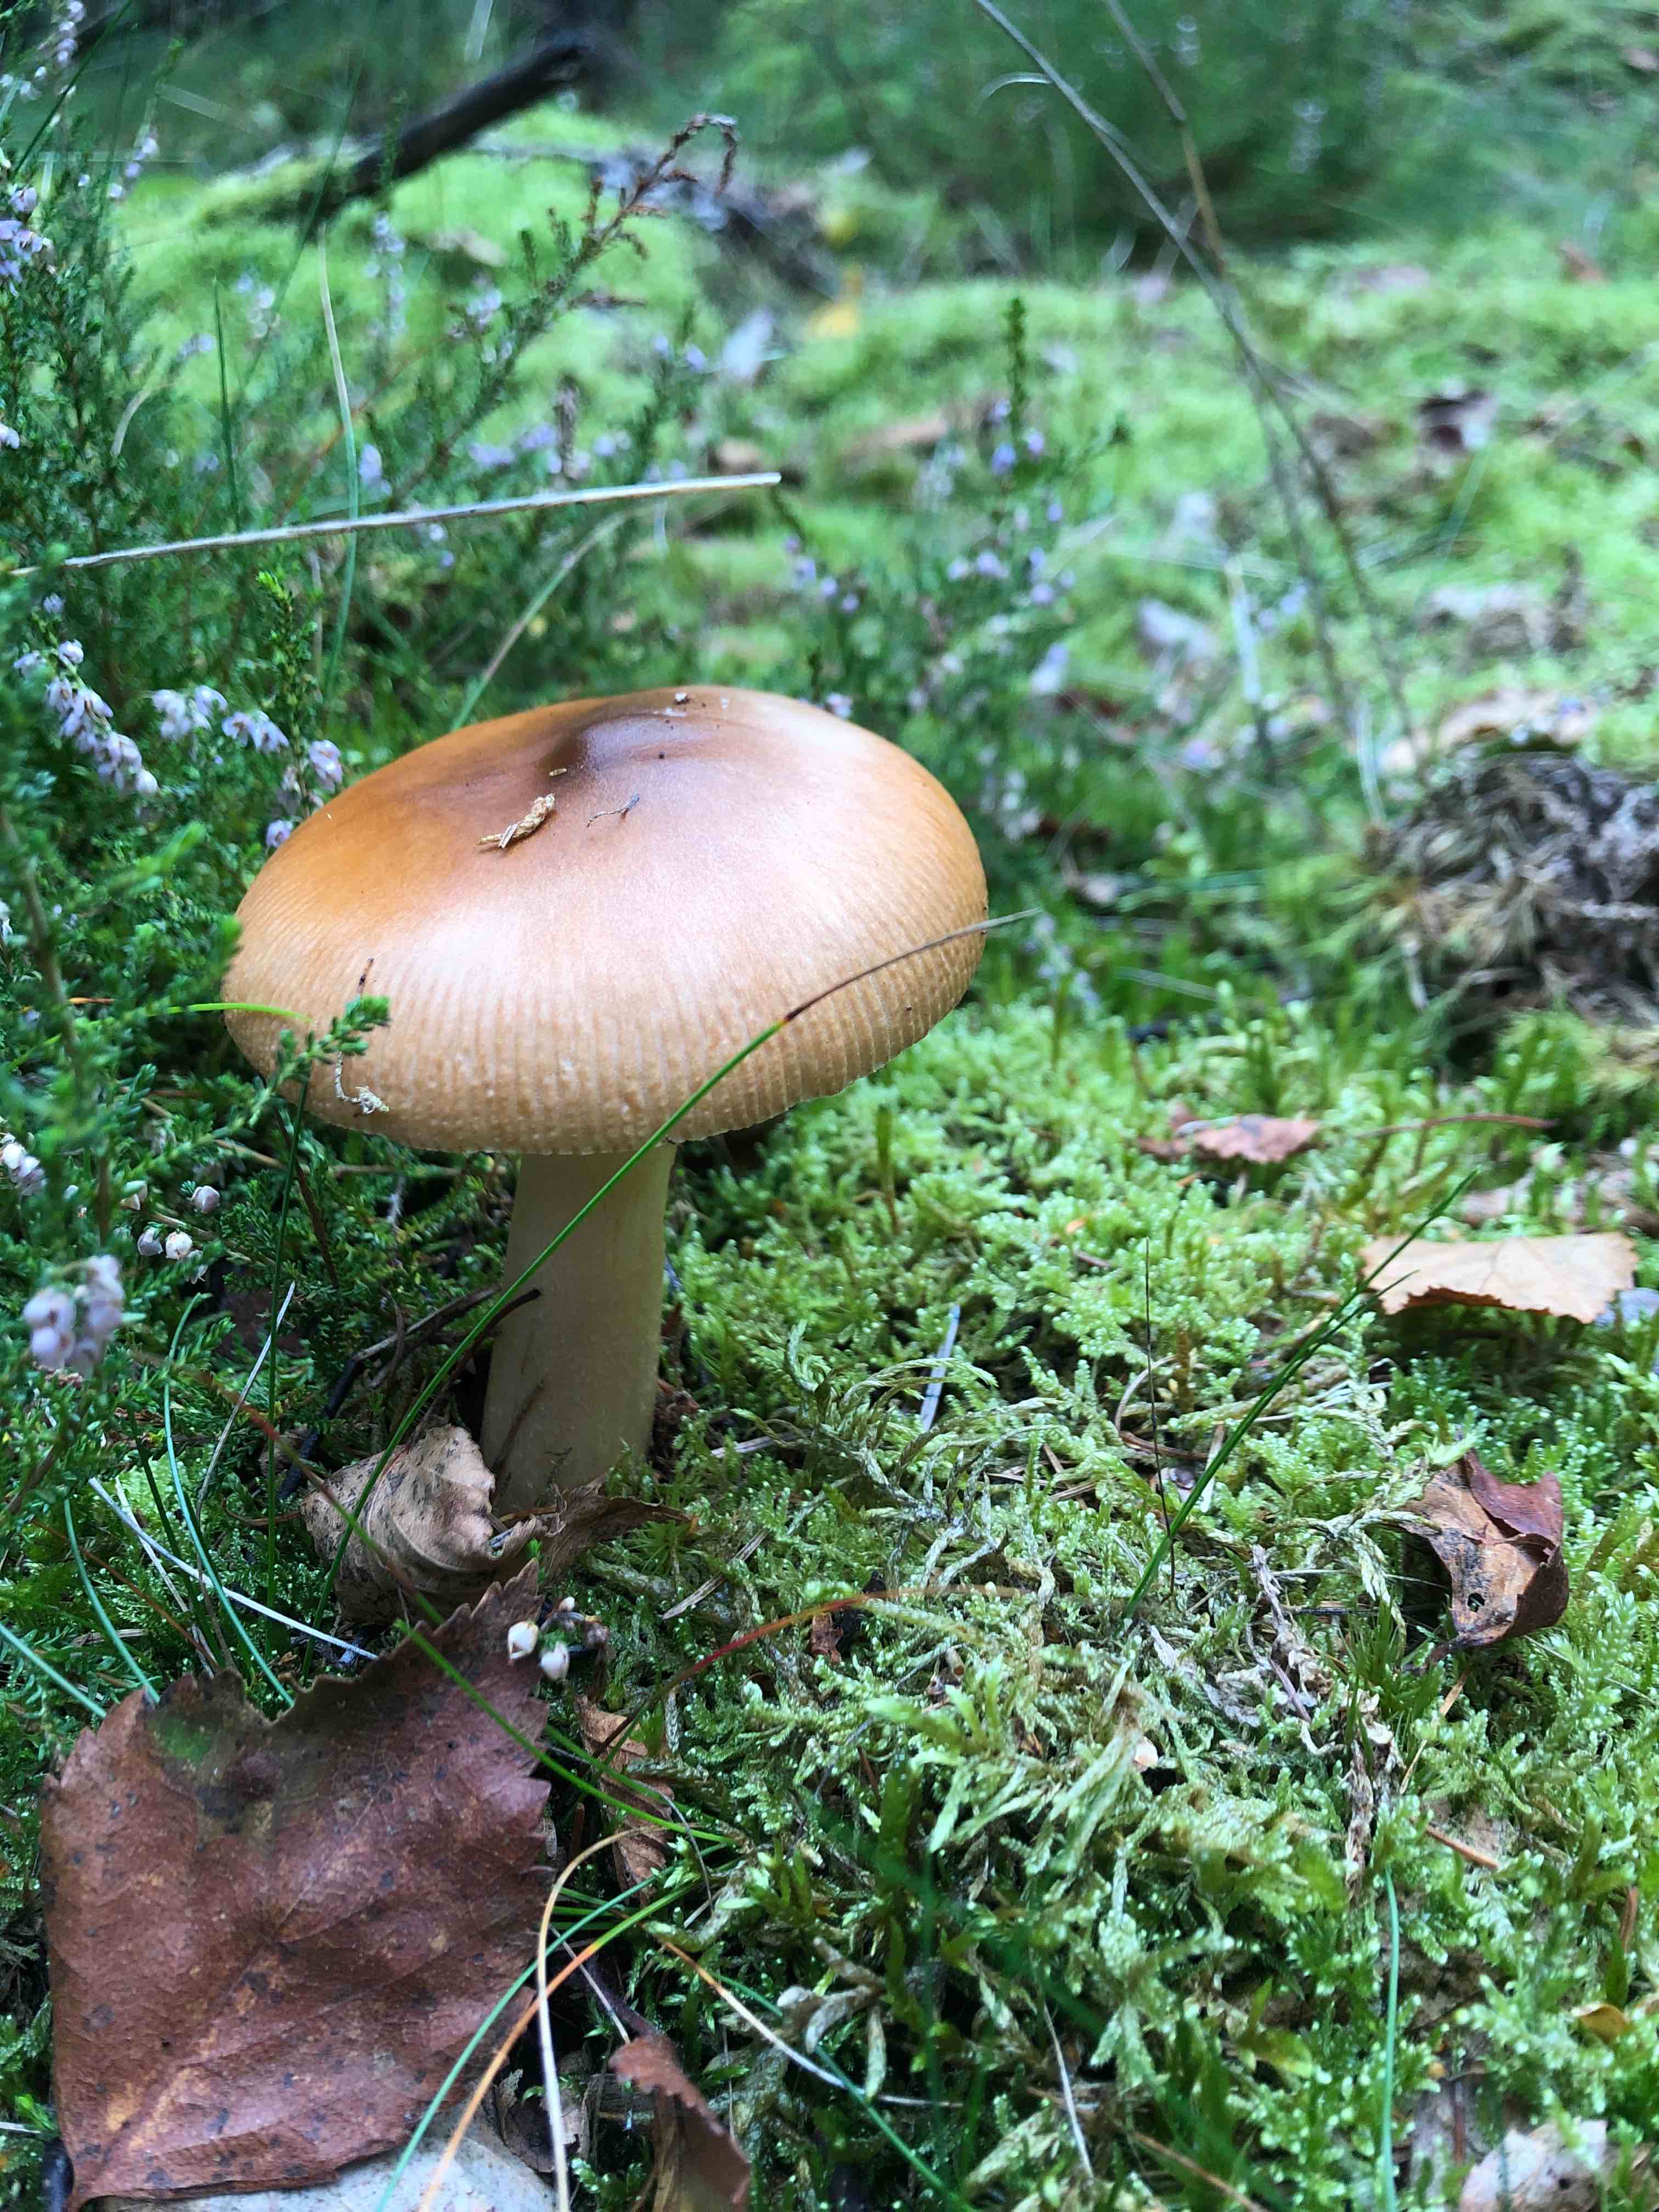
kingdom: Fungi
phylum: Basidiomycota
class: Agaricomycetes
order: Agaricales
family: Amanitaceae
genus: Amanita
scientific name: Amanita fulva
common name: brun kam-fluesvamp
